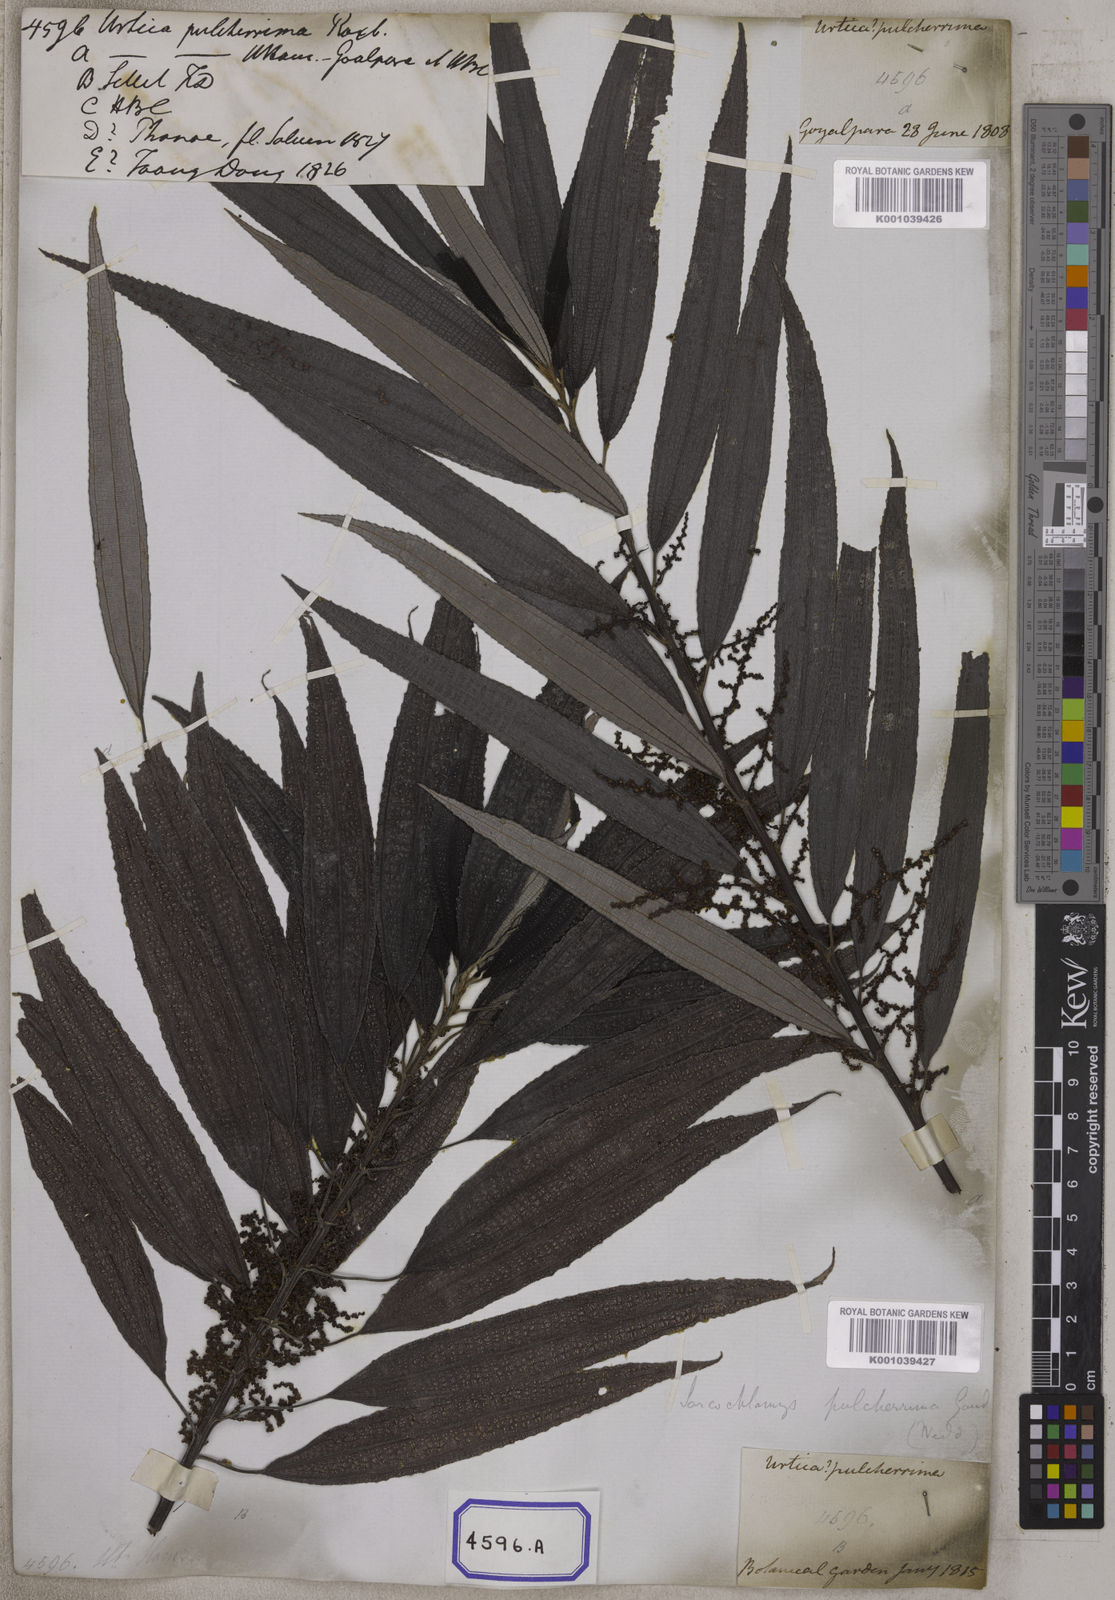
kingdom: Plantae
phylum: Tracheophyta
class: Magnoliopsida
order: Rosales
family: Urticaceae
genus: Boehmeria
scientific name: Boehmeria virgata
